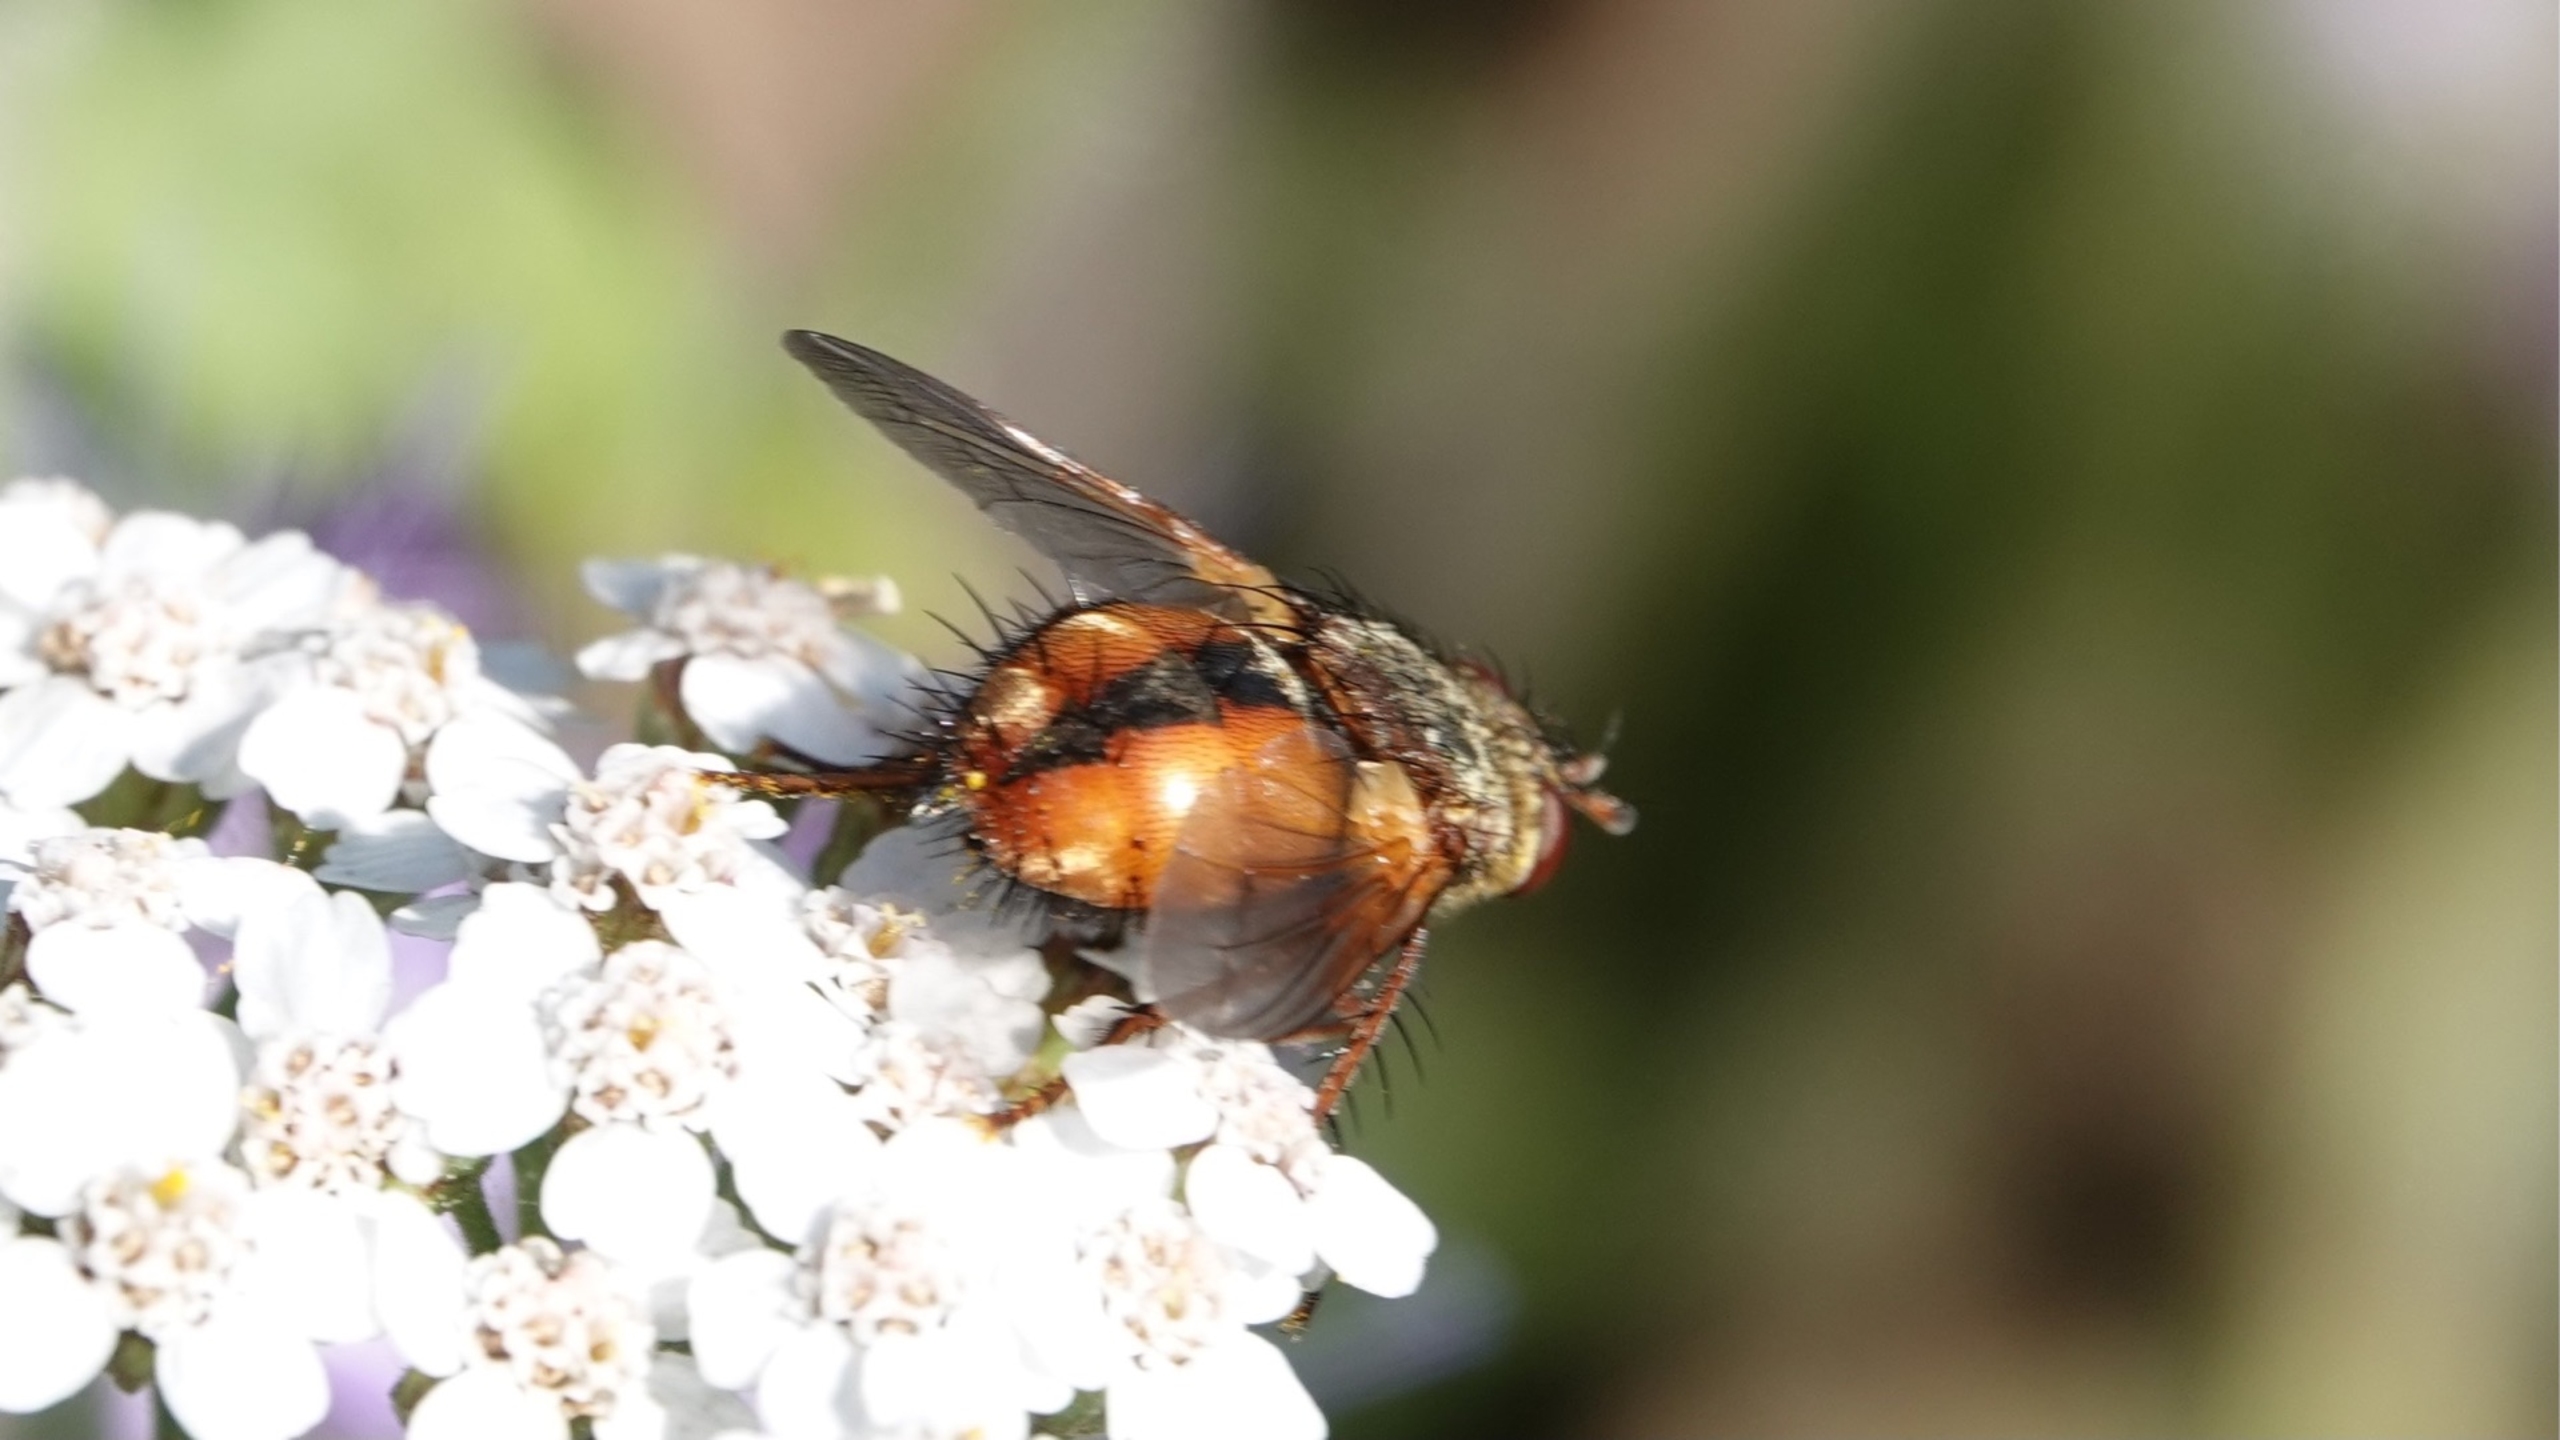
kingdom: Animalia
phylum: Arthropoda
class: Insecta
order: Diptera
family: Tachinidae
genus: Tachina
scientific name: Tachina fera
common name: Mellemfluen oskar
